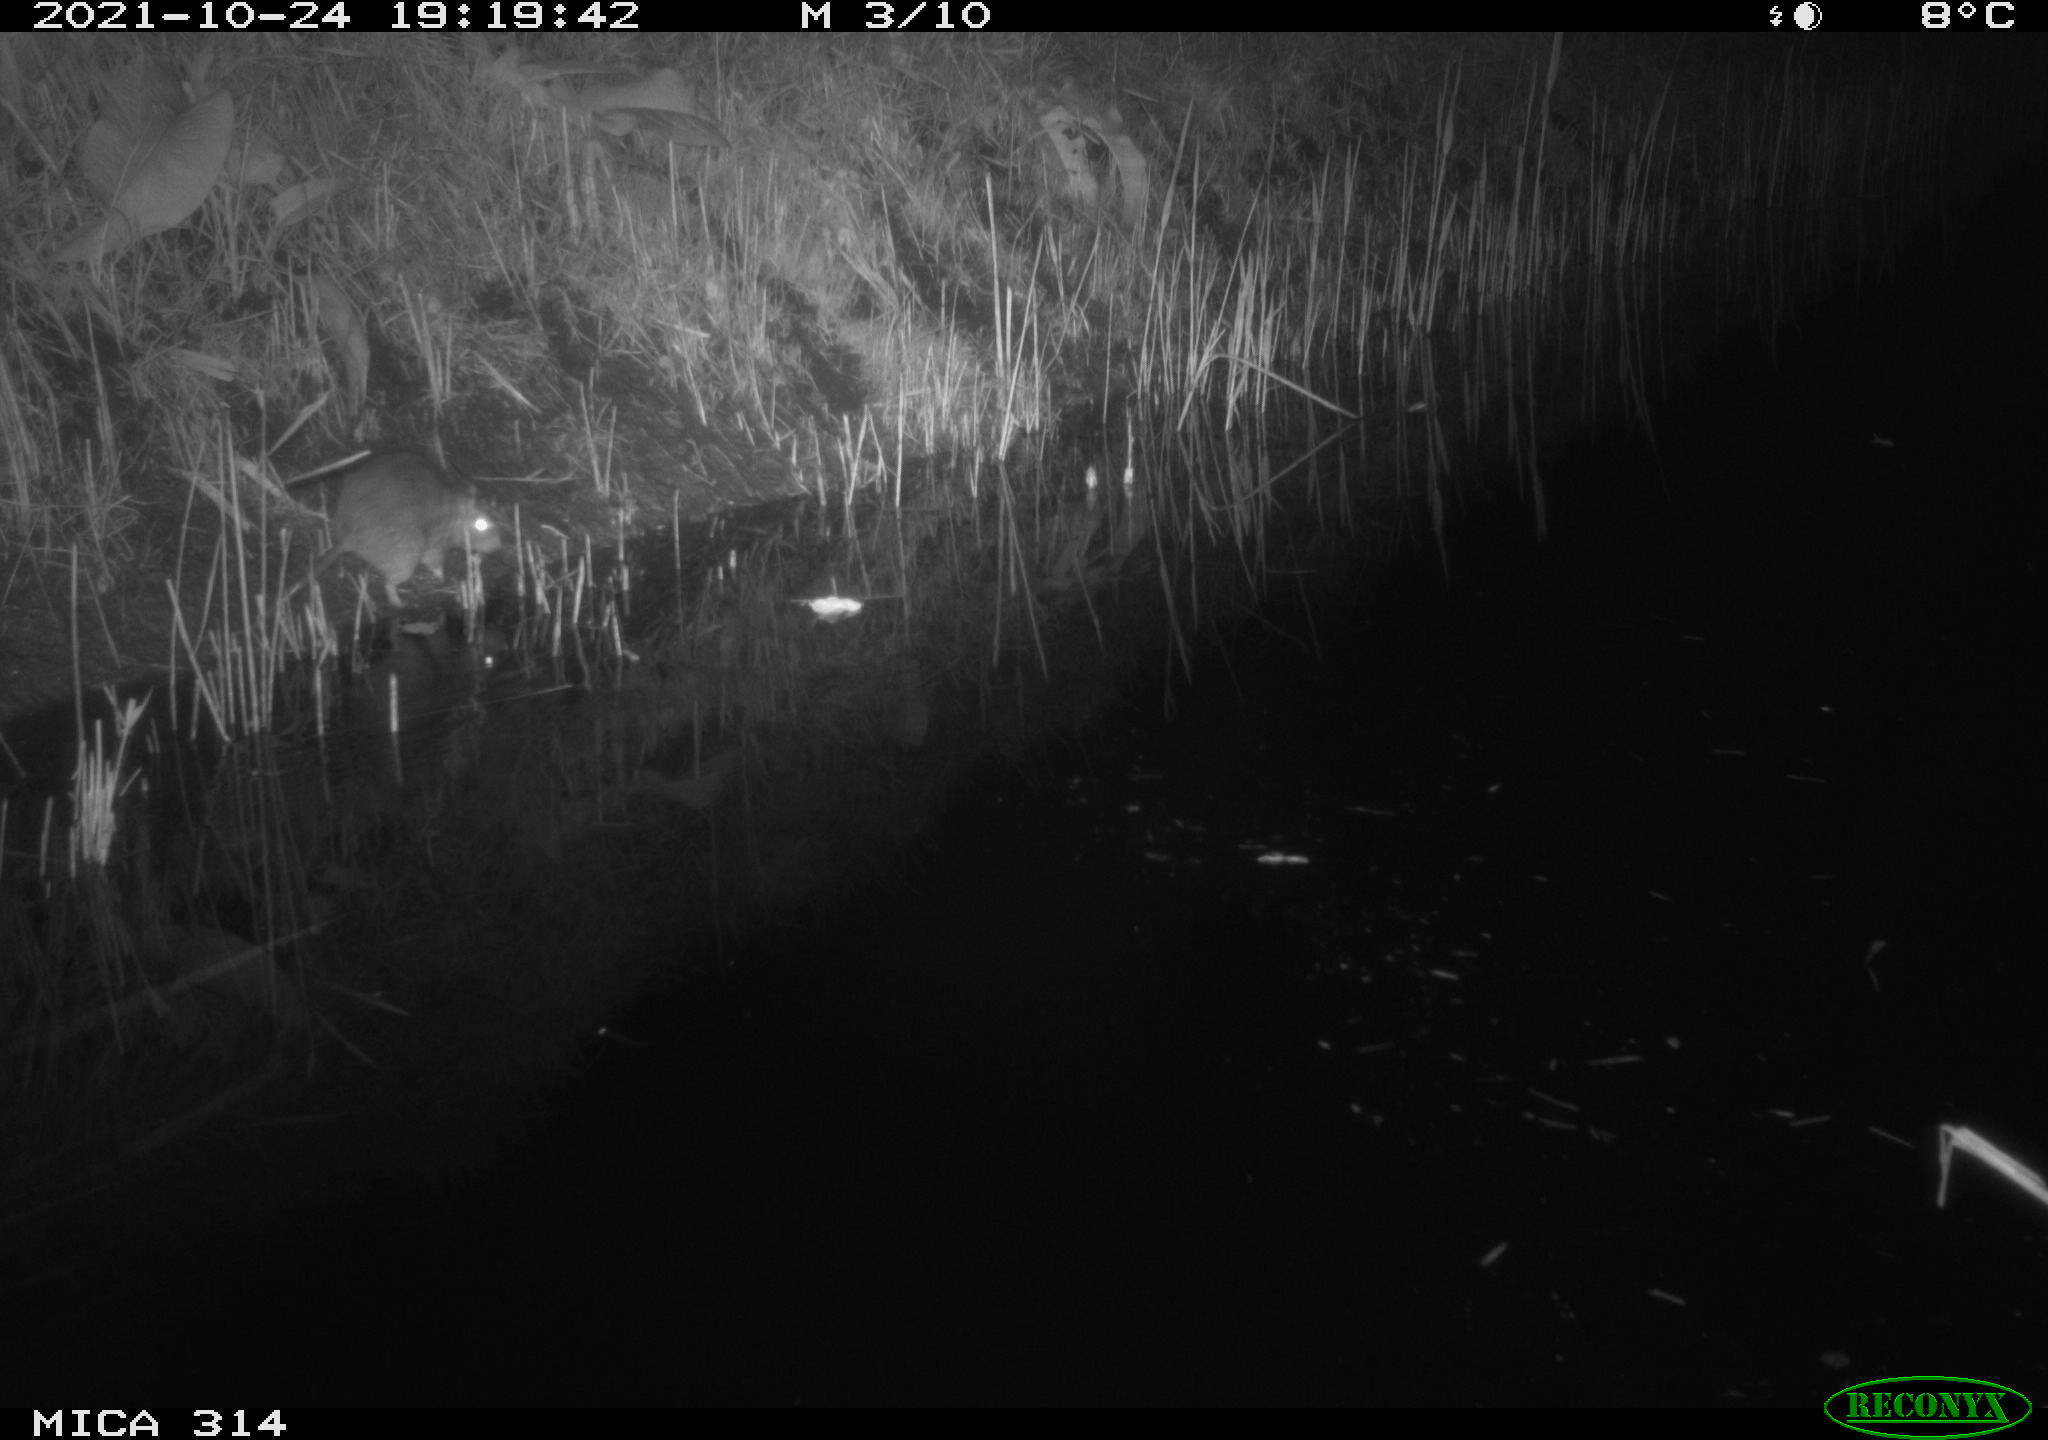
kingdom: Animalia
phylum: Chordata
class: Mammalia
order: Rodentia
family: Muridae
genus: Rattus
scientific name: Rattus norvegicus
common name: Brown rat
